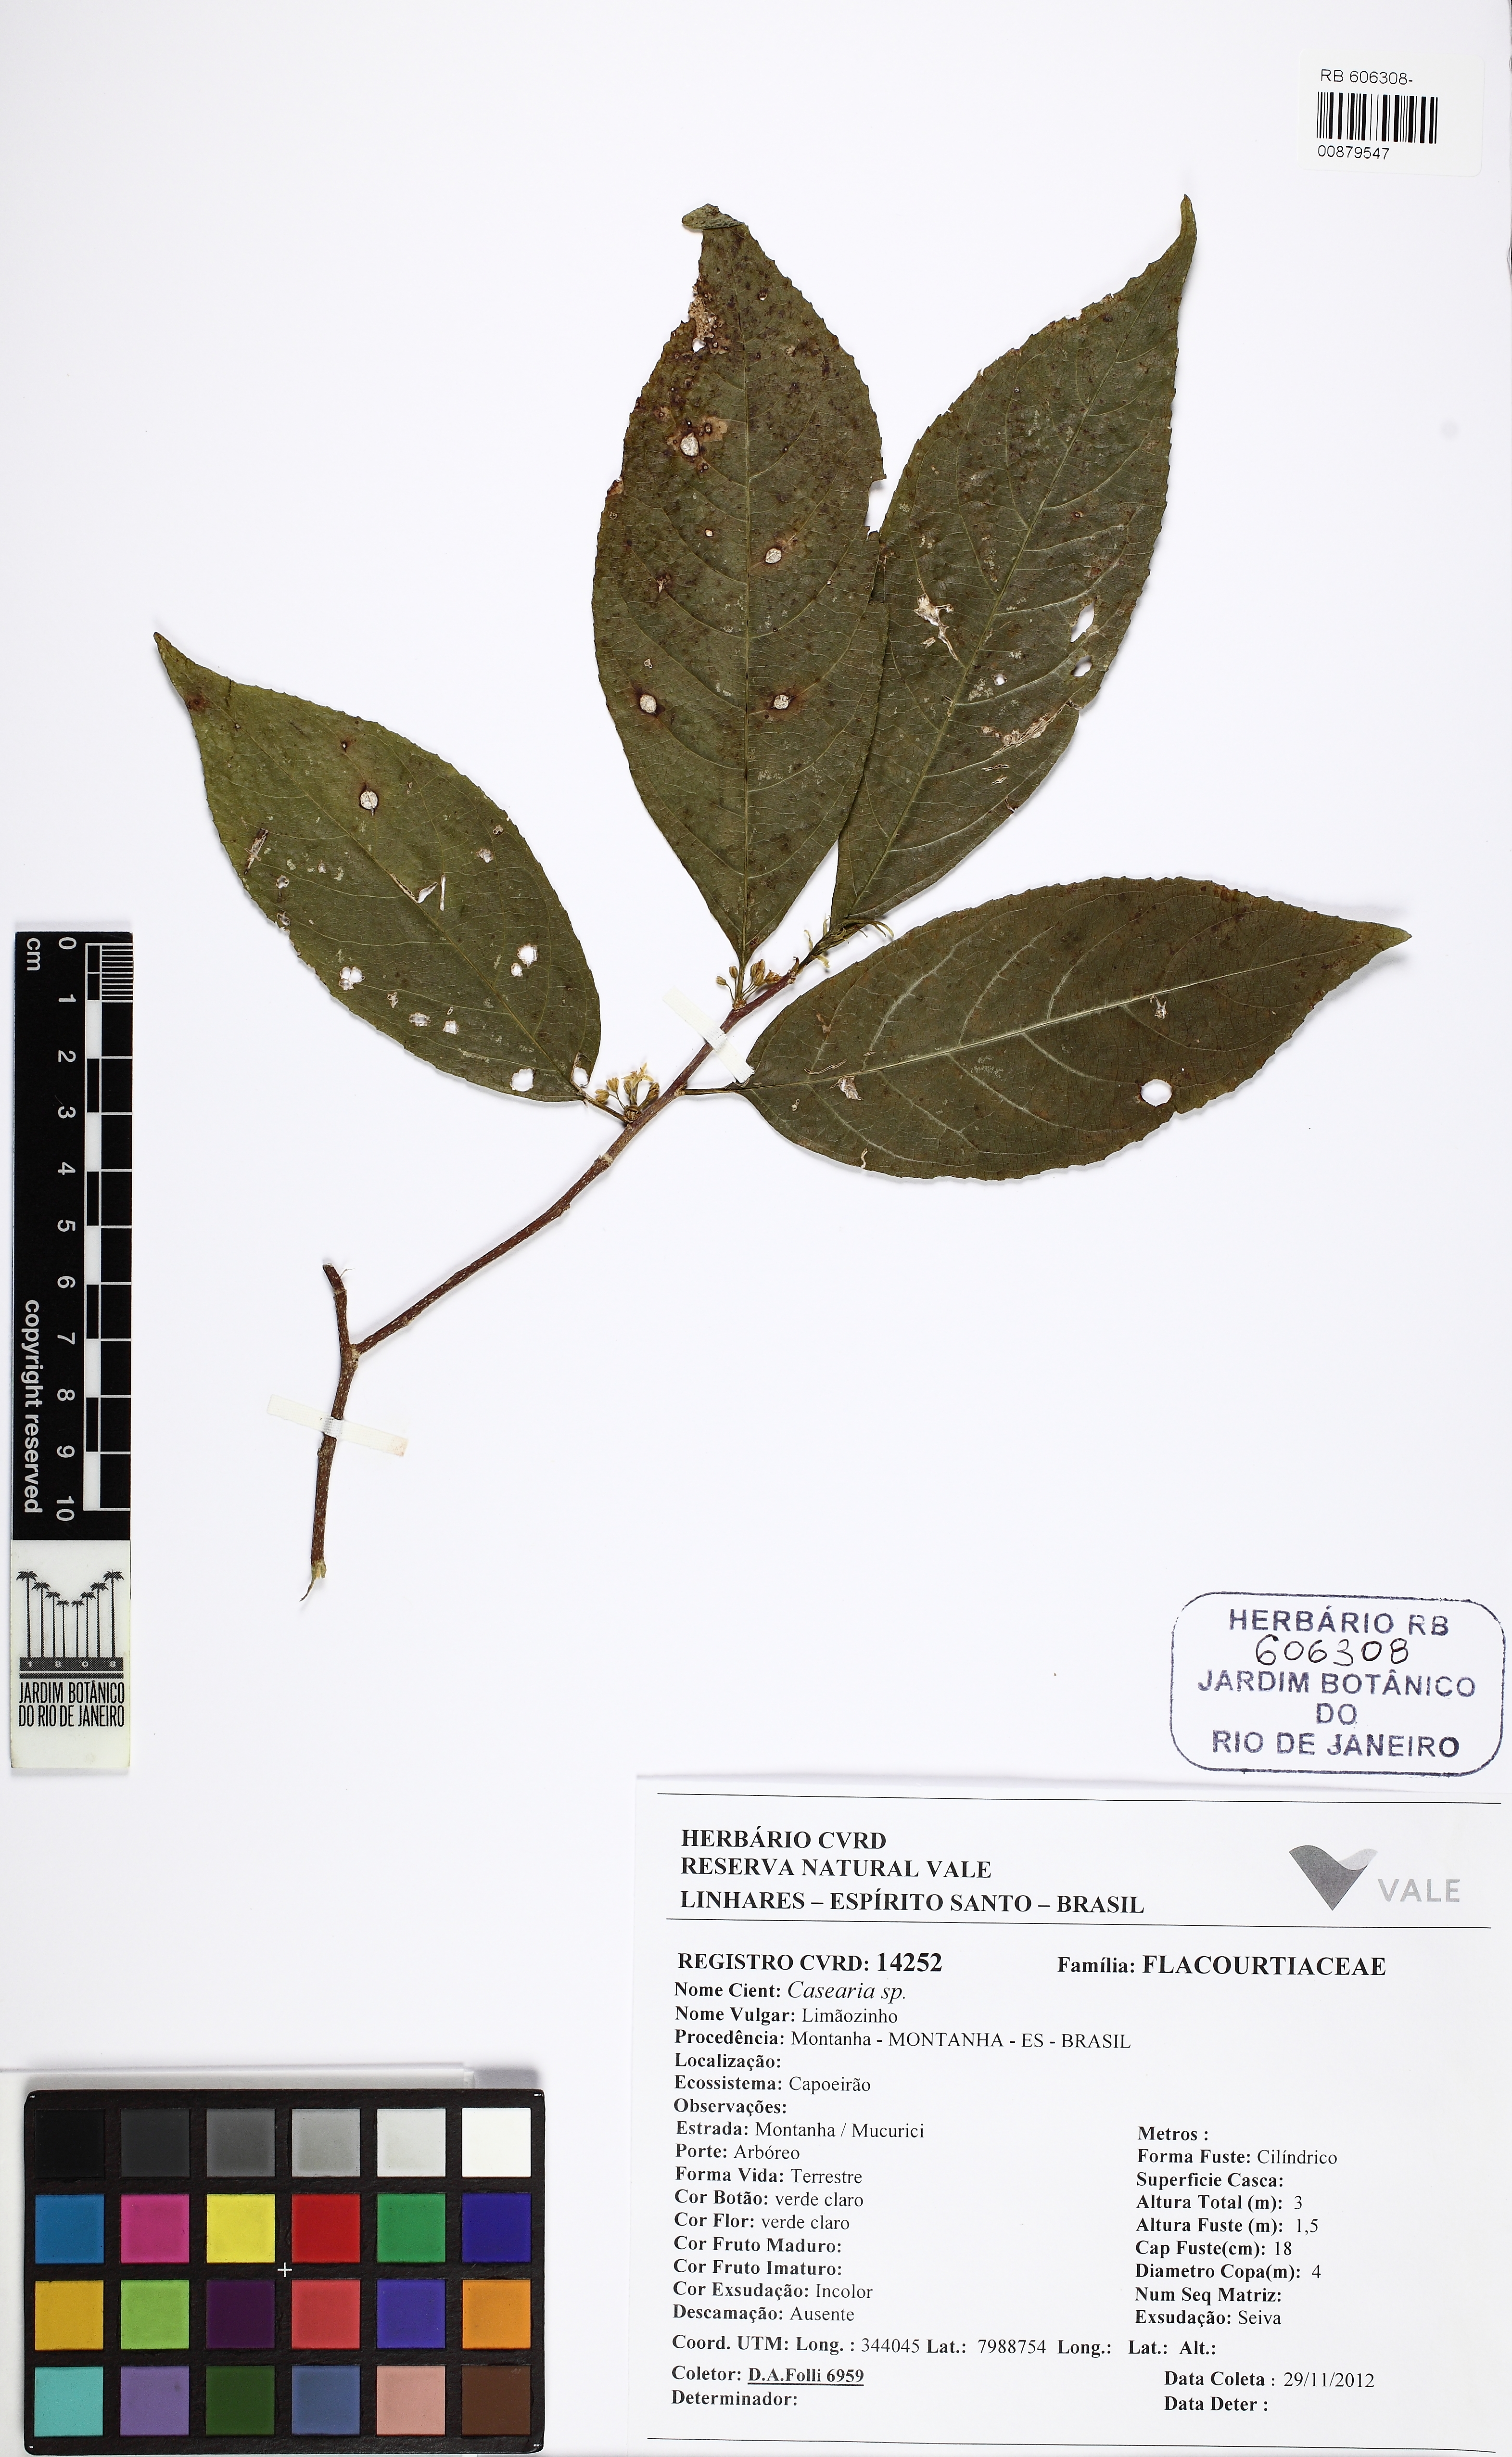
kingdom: Plantae
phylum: Tracheophyta
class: Magnoliopsida
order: Malpighiales
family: Salicaceae
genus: Casearia
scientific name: Casearia combaymensis
